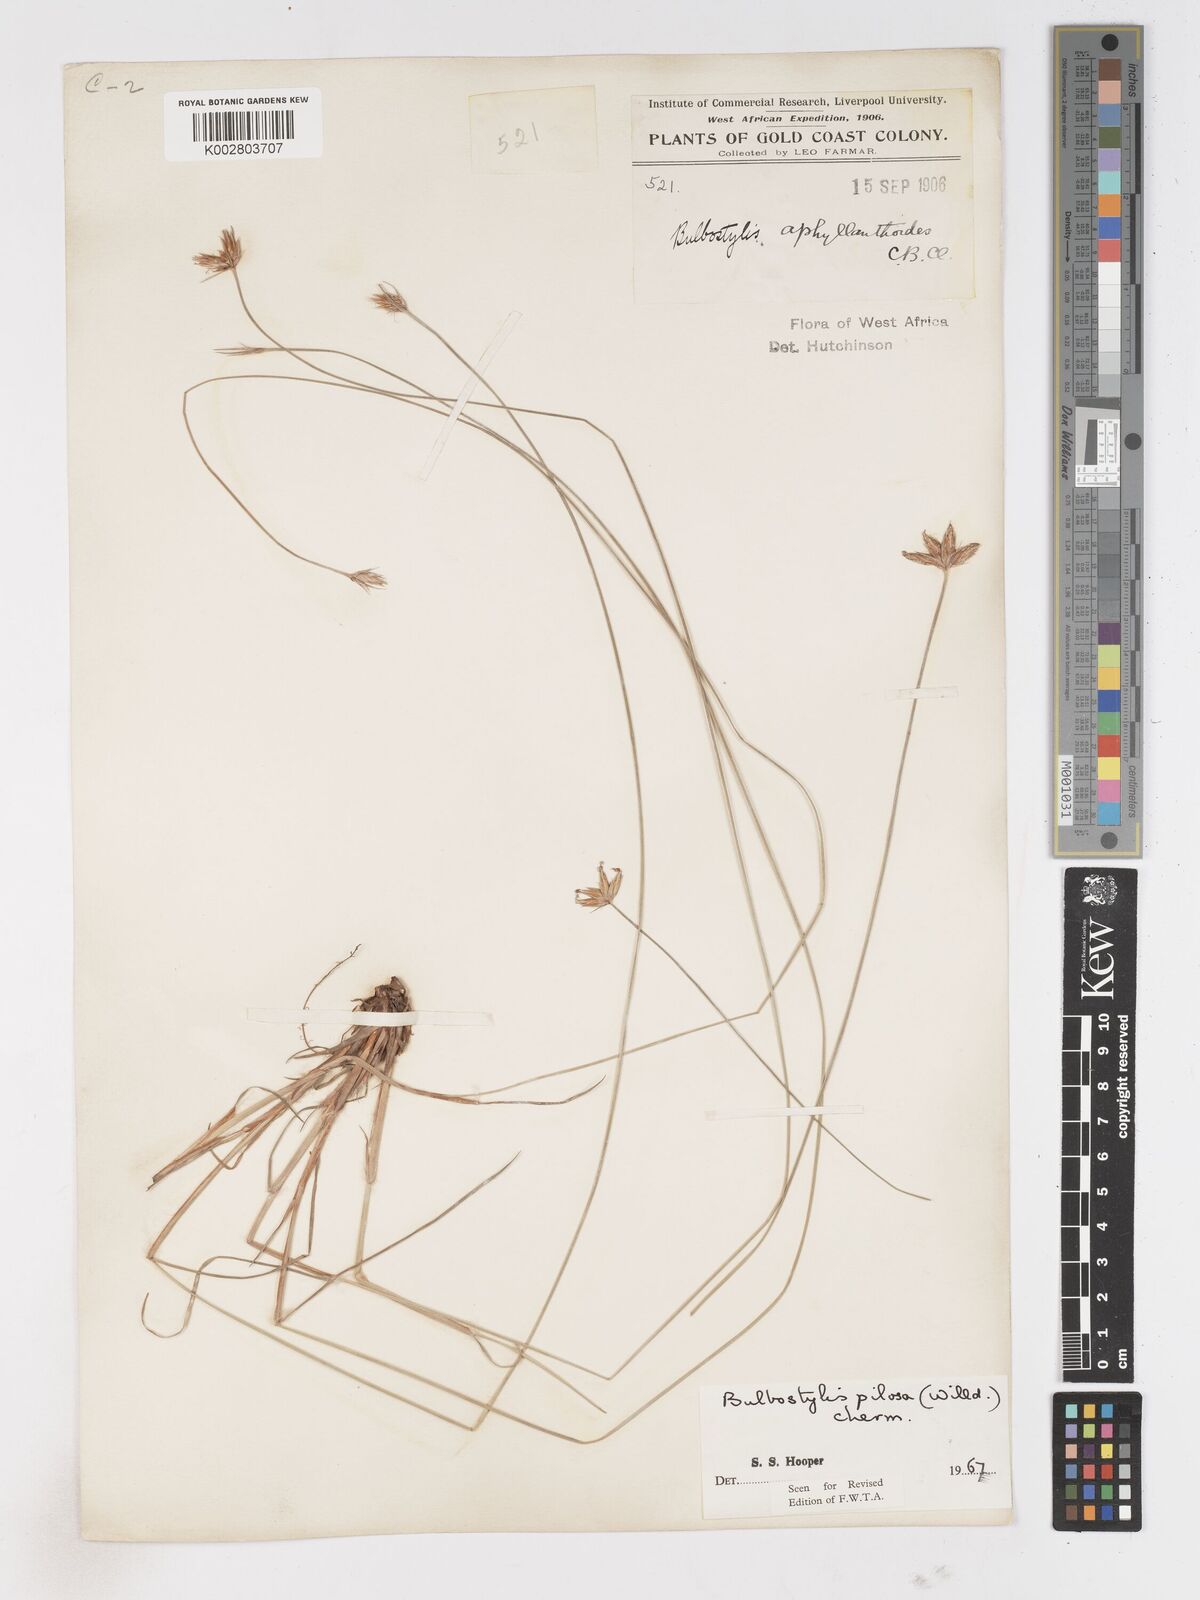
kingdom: Plantae
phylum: Tracheophyta
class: Liliopsida
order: Poales
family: Cyperaceae
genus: Bulbostylis
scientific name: Bulbostylis pilosa
